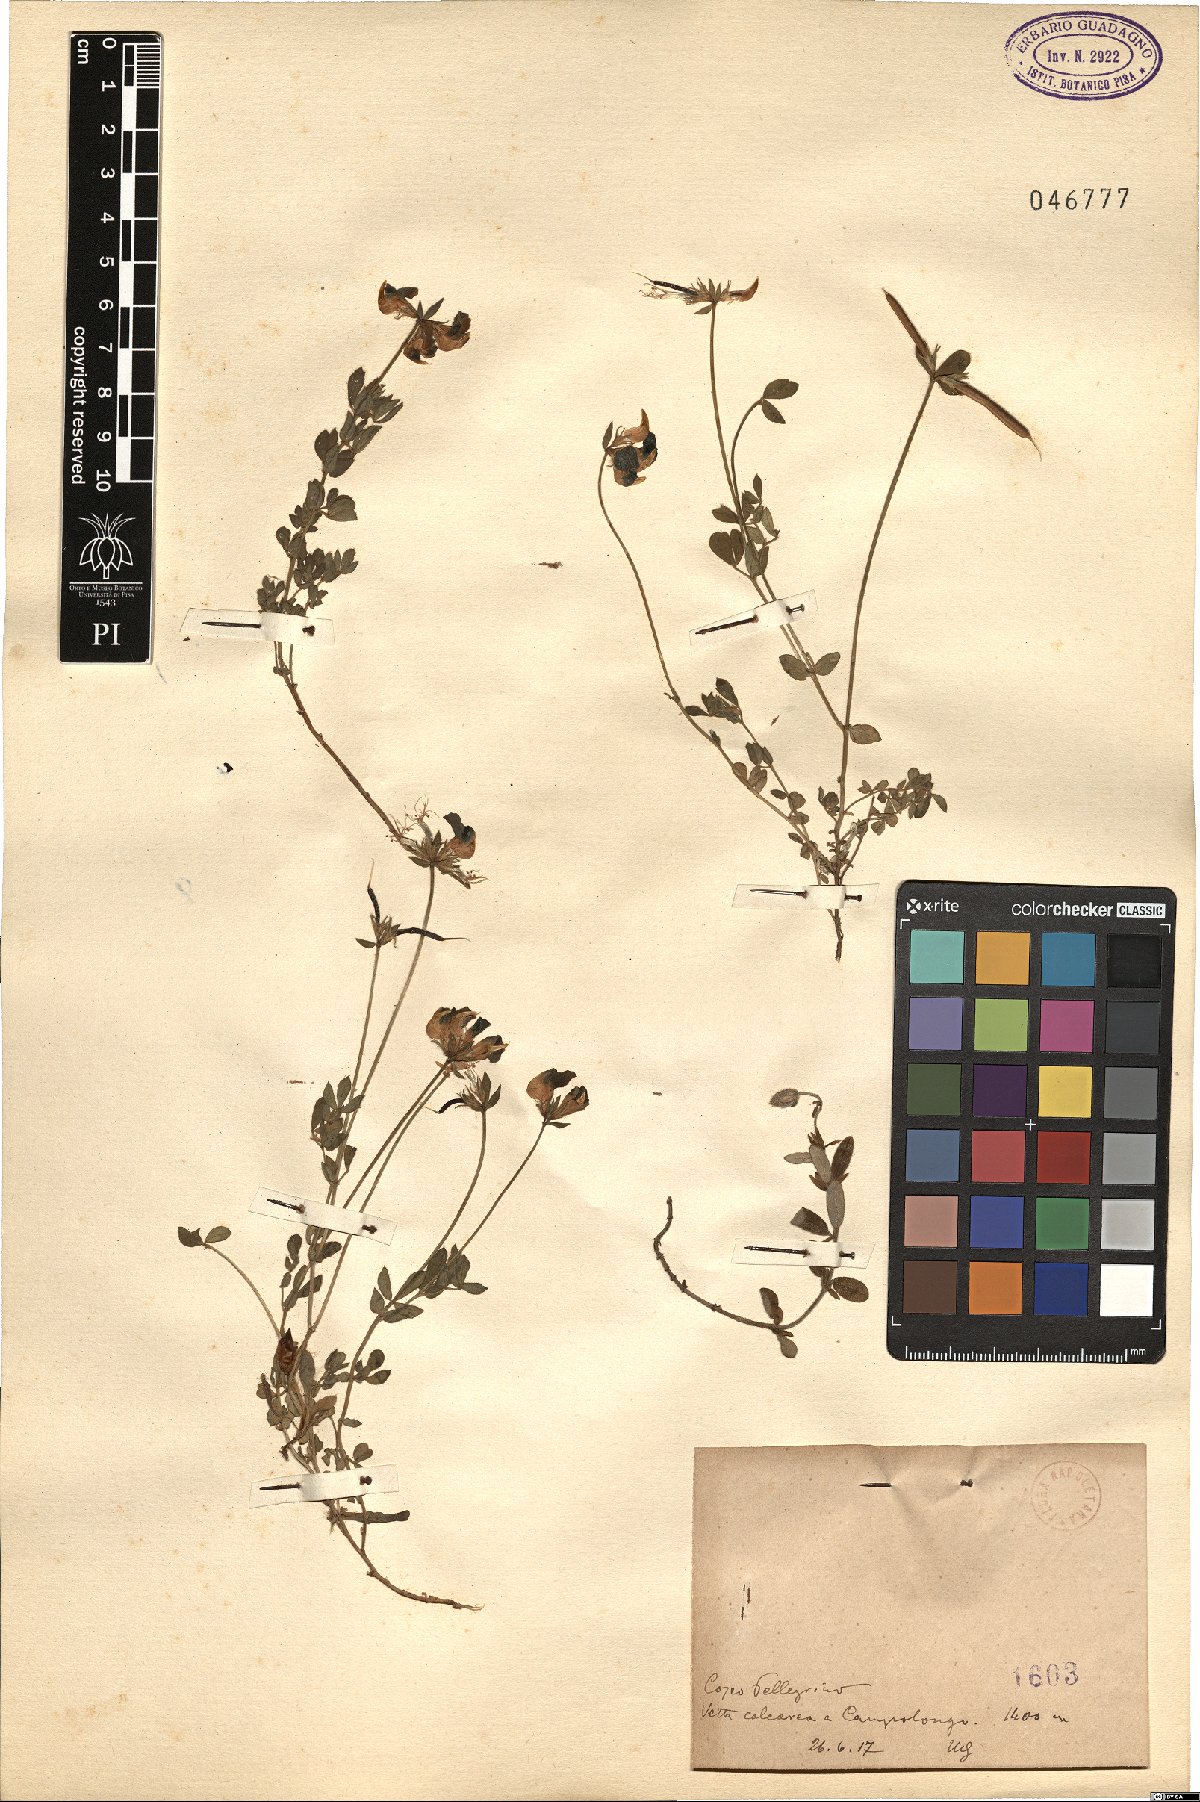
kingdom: Plantae
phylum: Tracheophyta
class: Magnoliopsida
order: Fabales
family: Fabaceae
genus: Lotus
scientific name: Lotus
